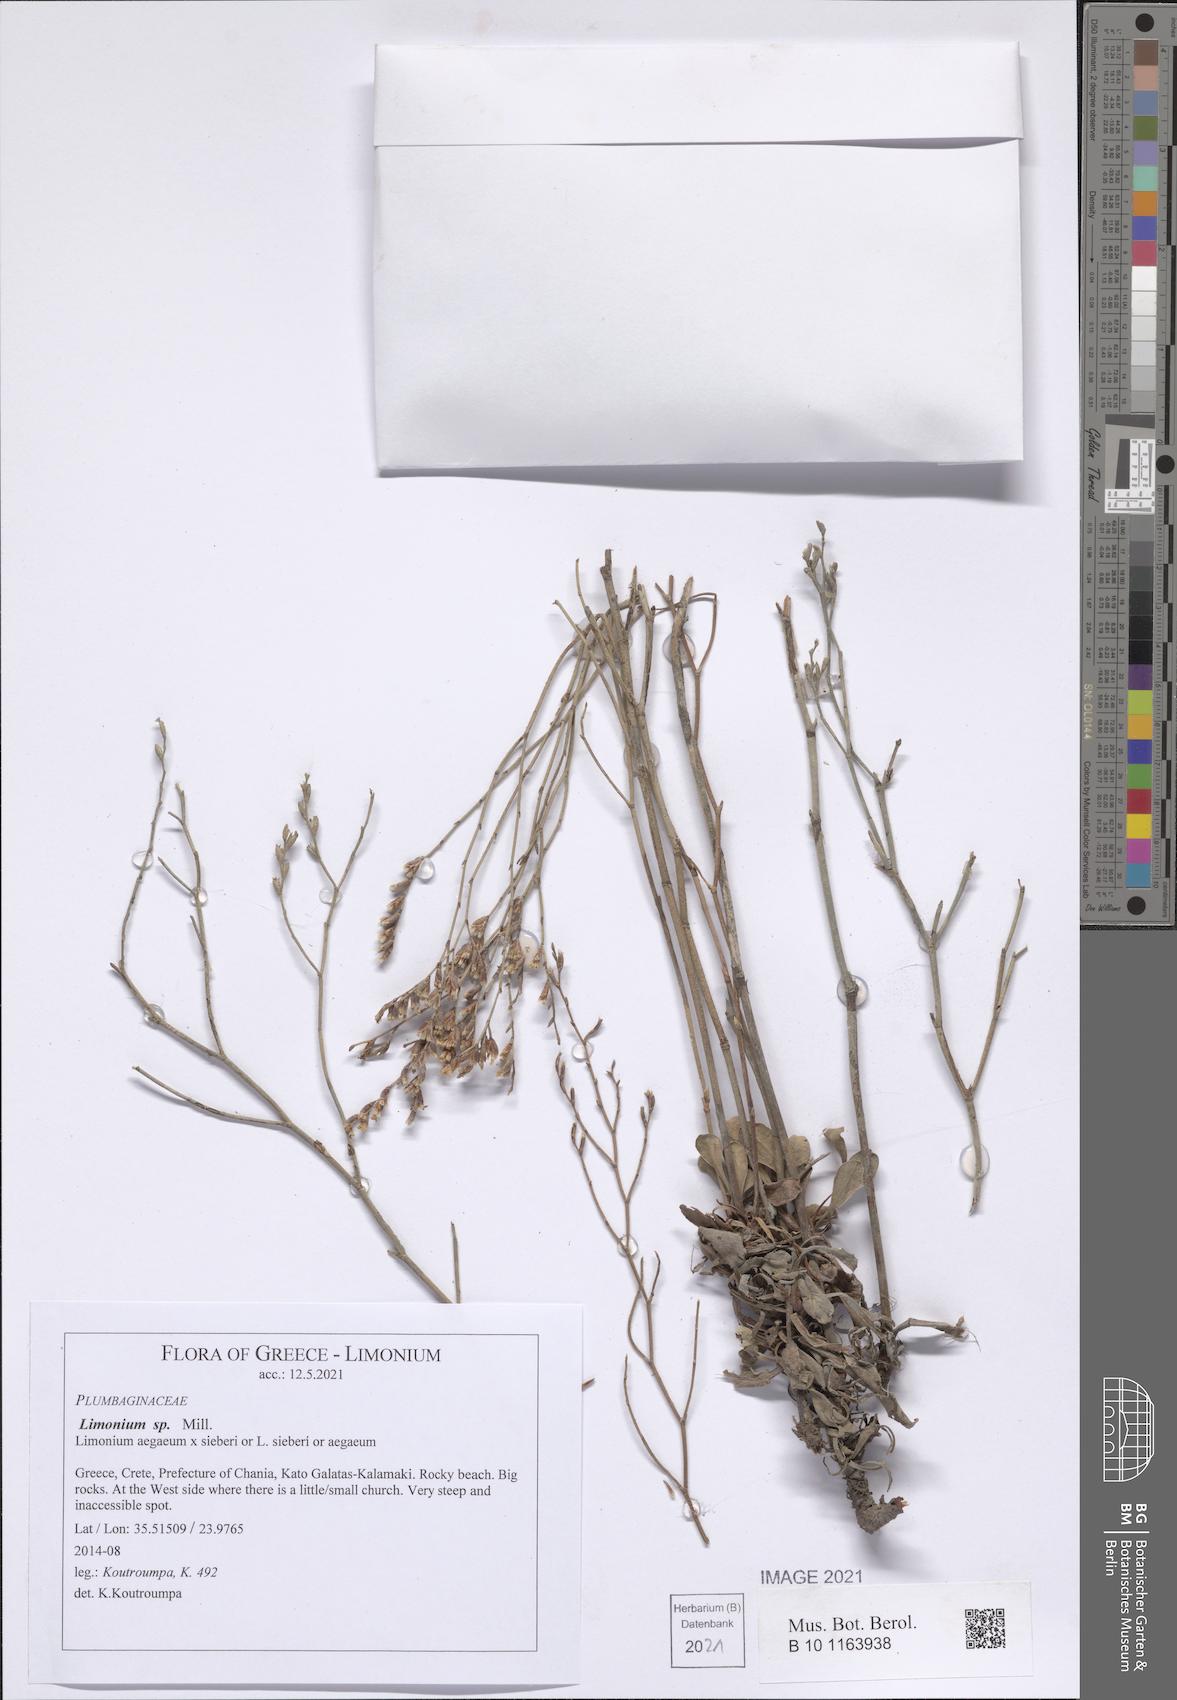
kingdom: Plantae
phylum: Tracheophyta
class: Magnoliopsida
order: Caryophyllales
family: Plumbaginaceae
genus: Limonium
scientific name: Limonium
